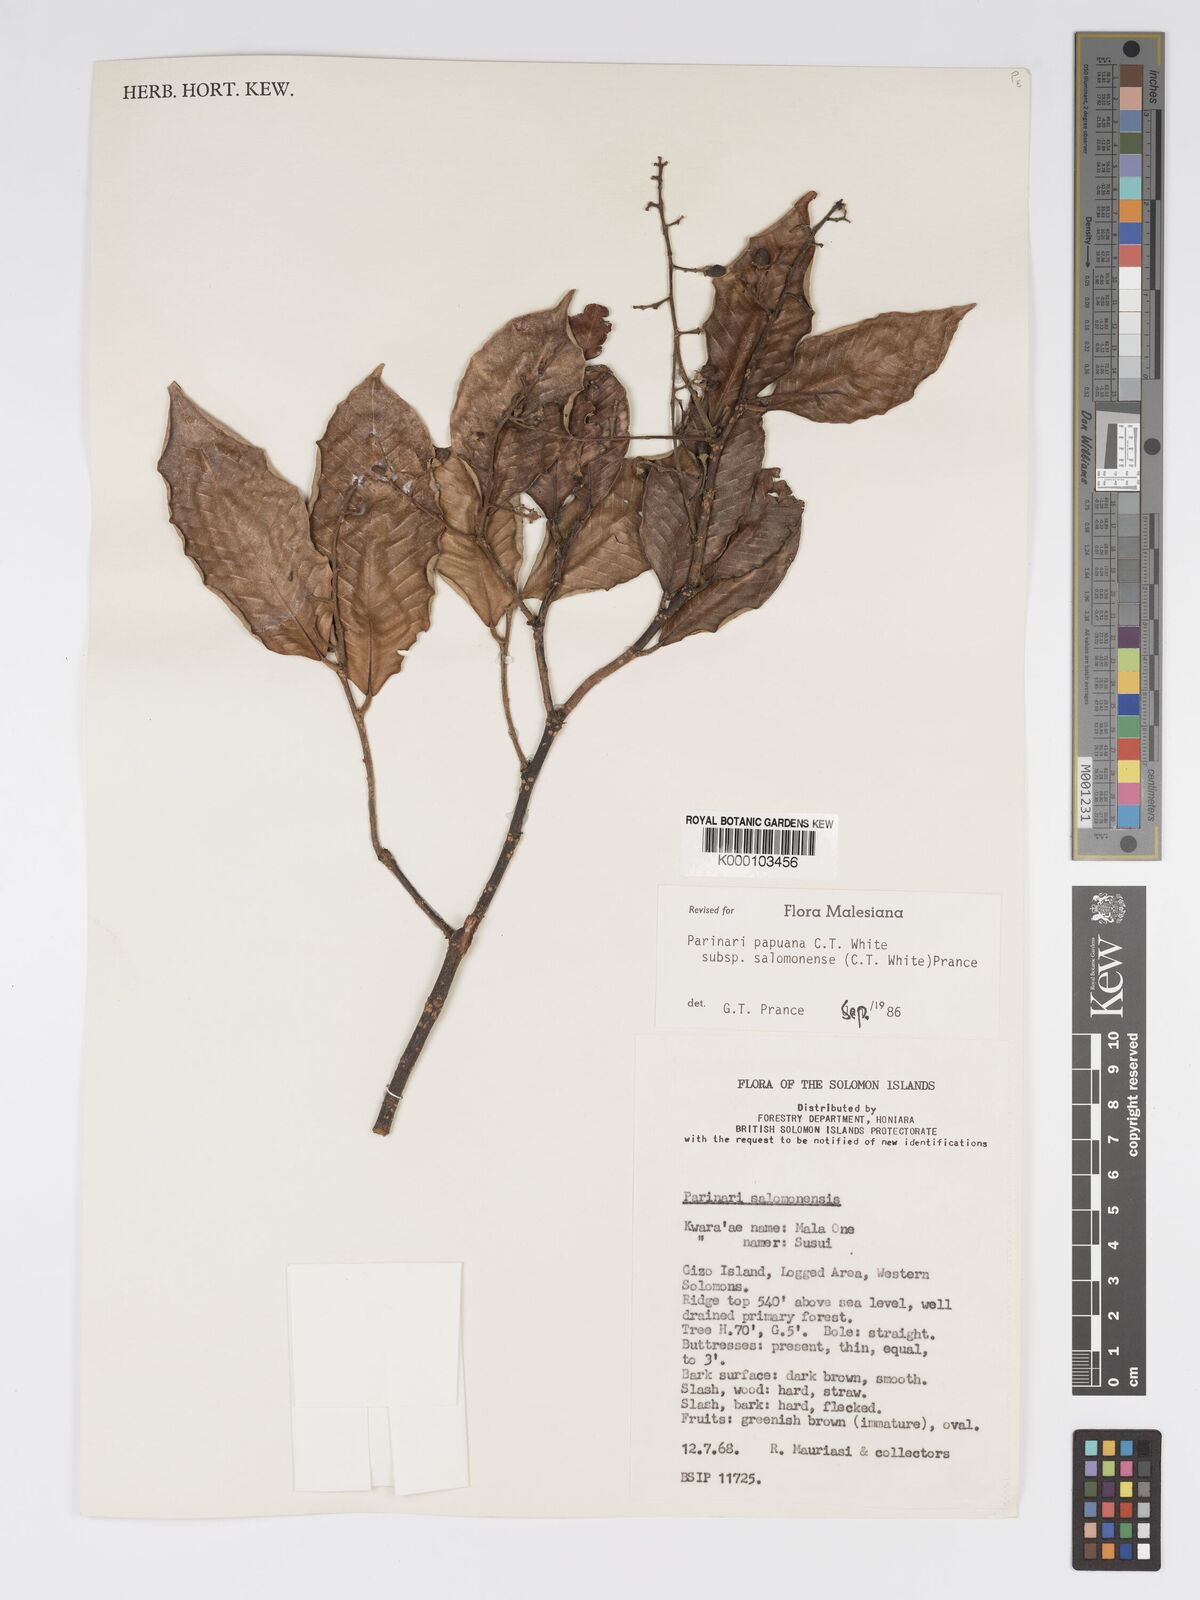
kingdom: Plantae
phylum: Tracheophyta
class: Magnoliopsida
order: Malpighiales
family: Chrysobalanaceae
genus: Parinari
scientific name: Parinari papuana
